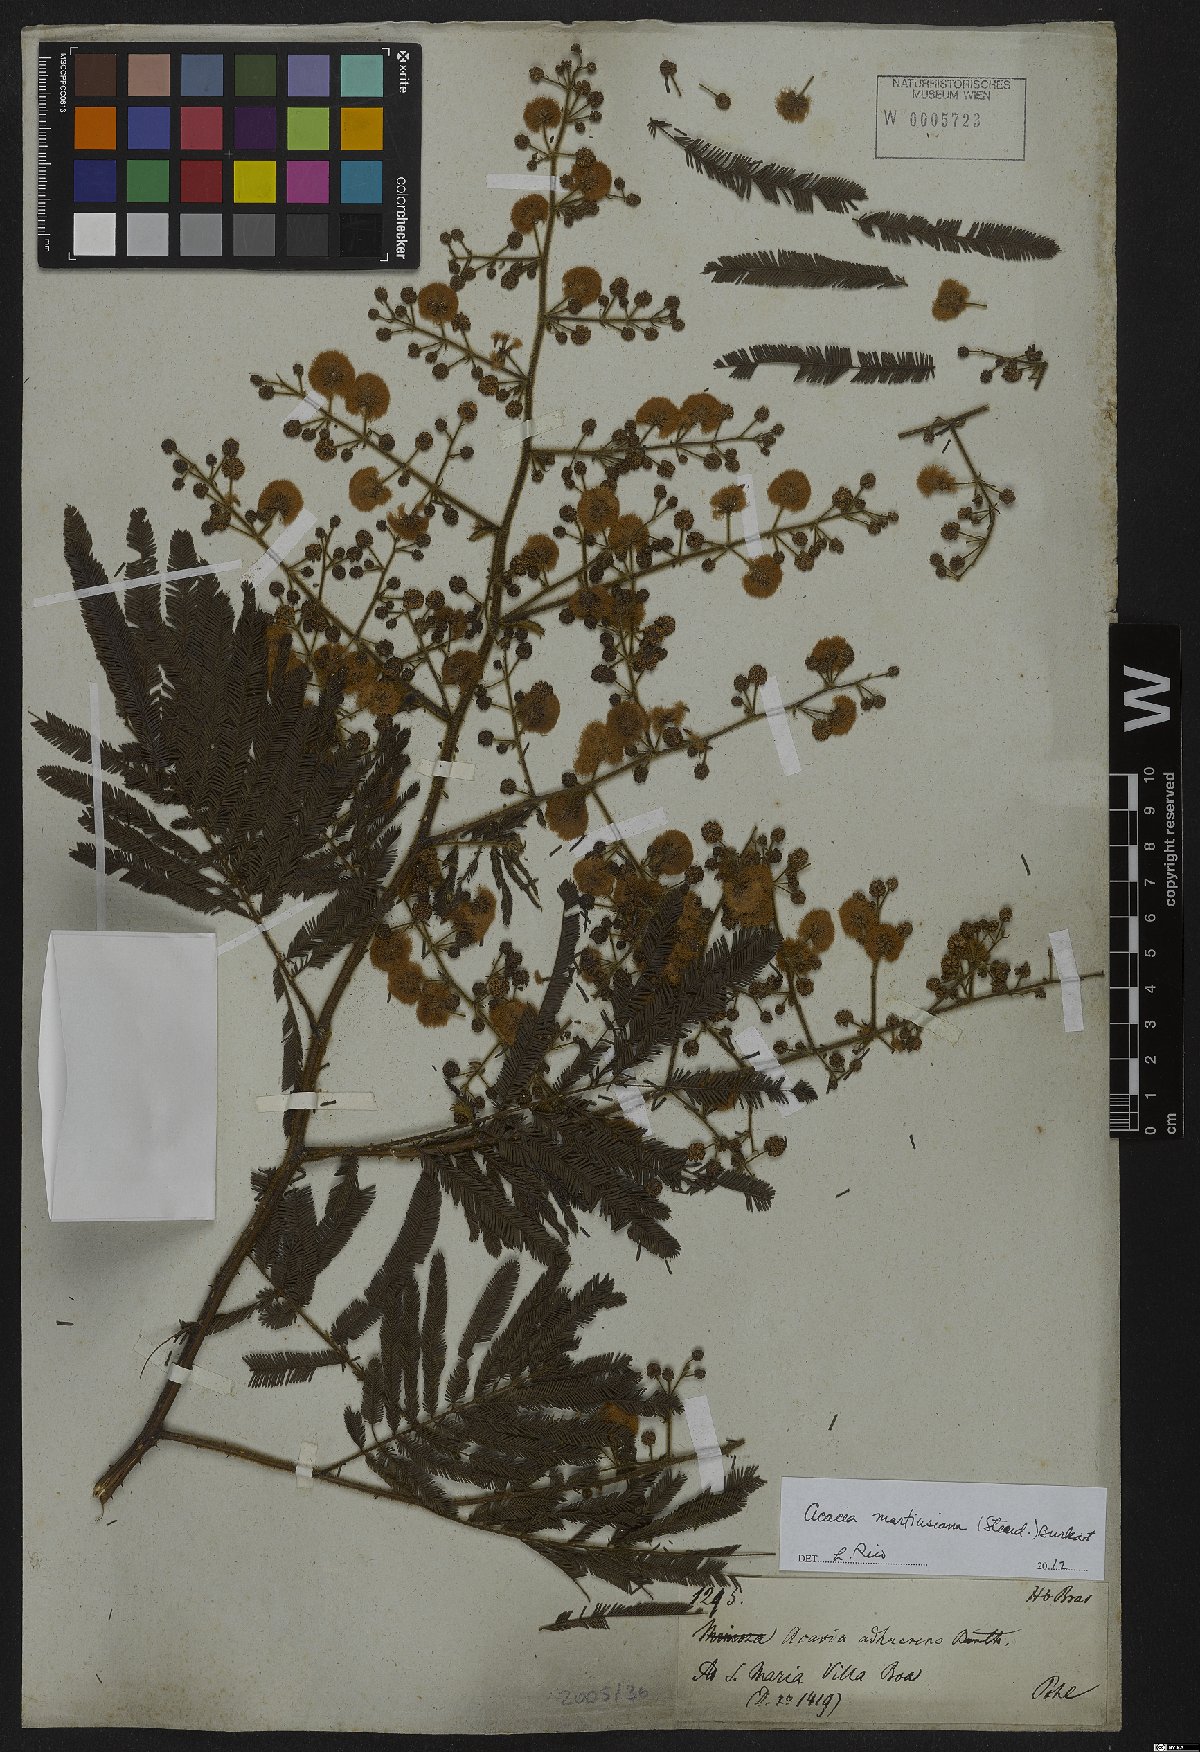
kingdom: Plantae
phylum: Tracheophyta
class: Magnoliopsida
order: Fabales
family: Fabaceae
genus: Senegalia
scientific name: Senegalia martiusiana
